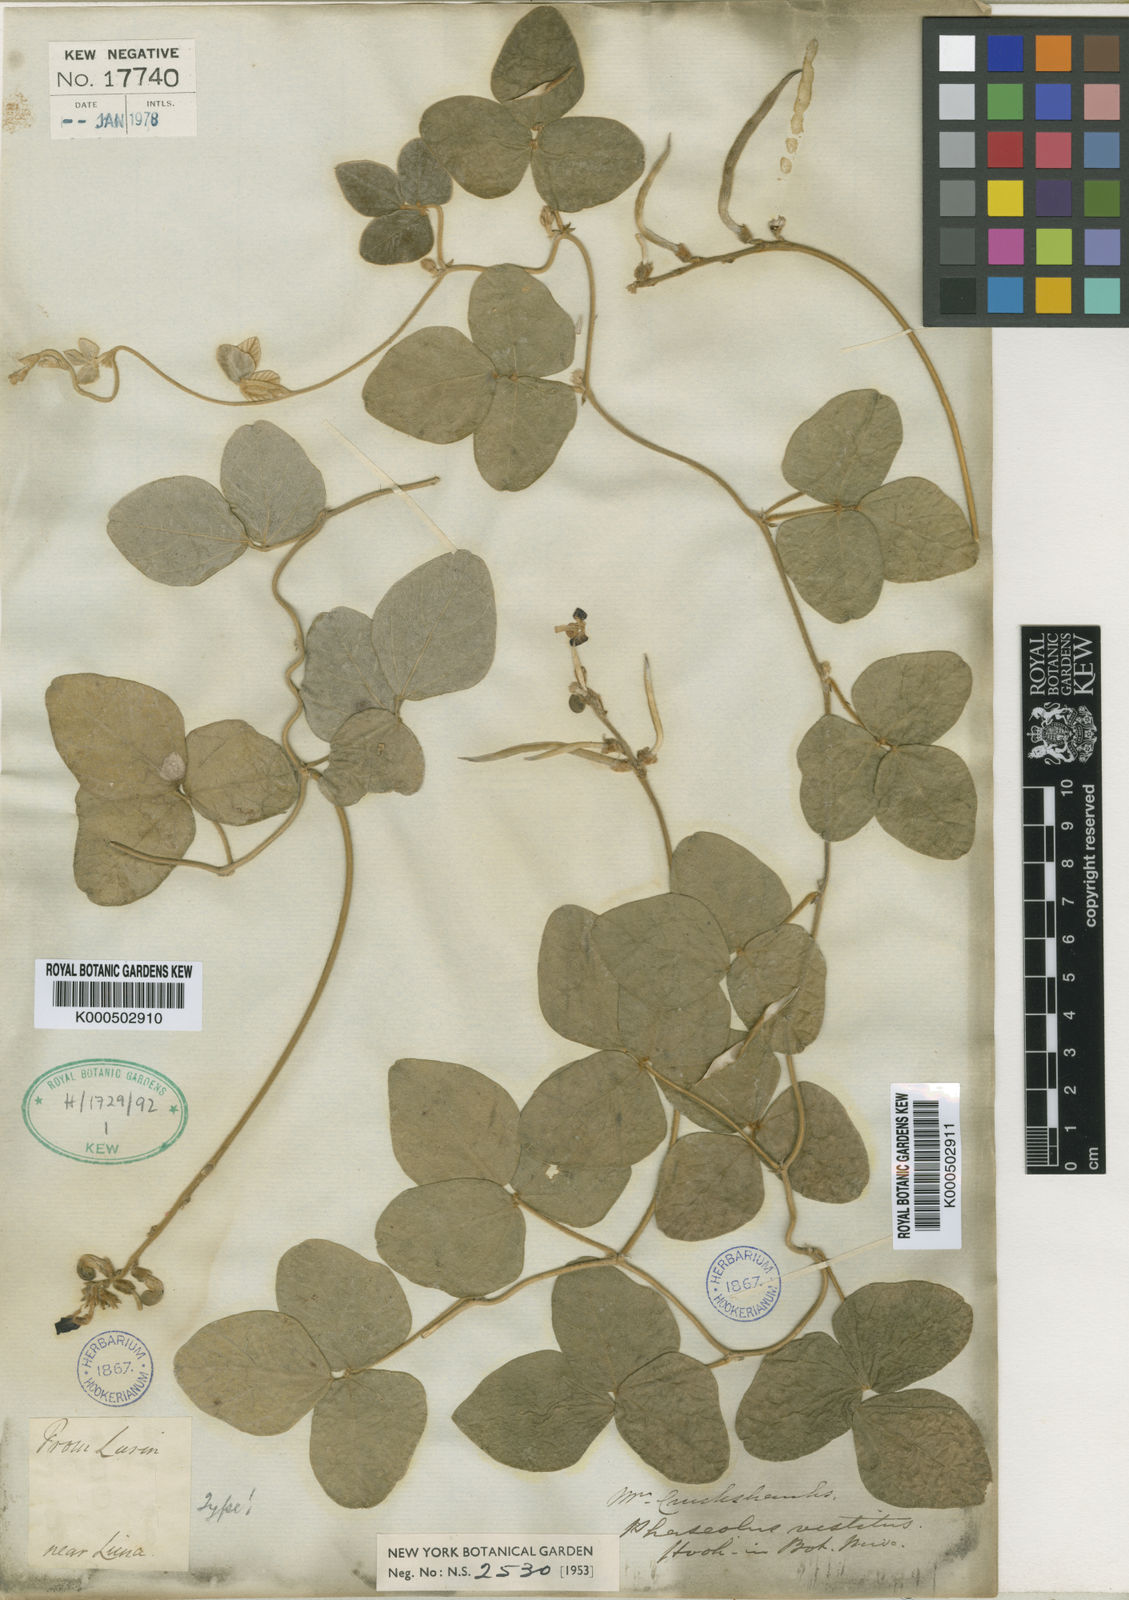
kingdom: Plantae
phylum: Tracheophyta
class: Magnoliopsida
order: Fabales
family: Fabaceae
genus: Macroptilium
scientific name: Macroptilium atropurpureum
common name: Purple bushbean
